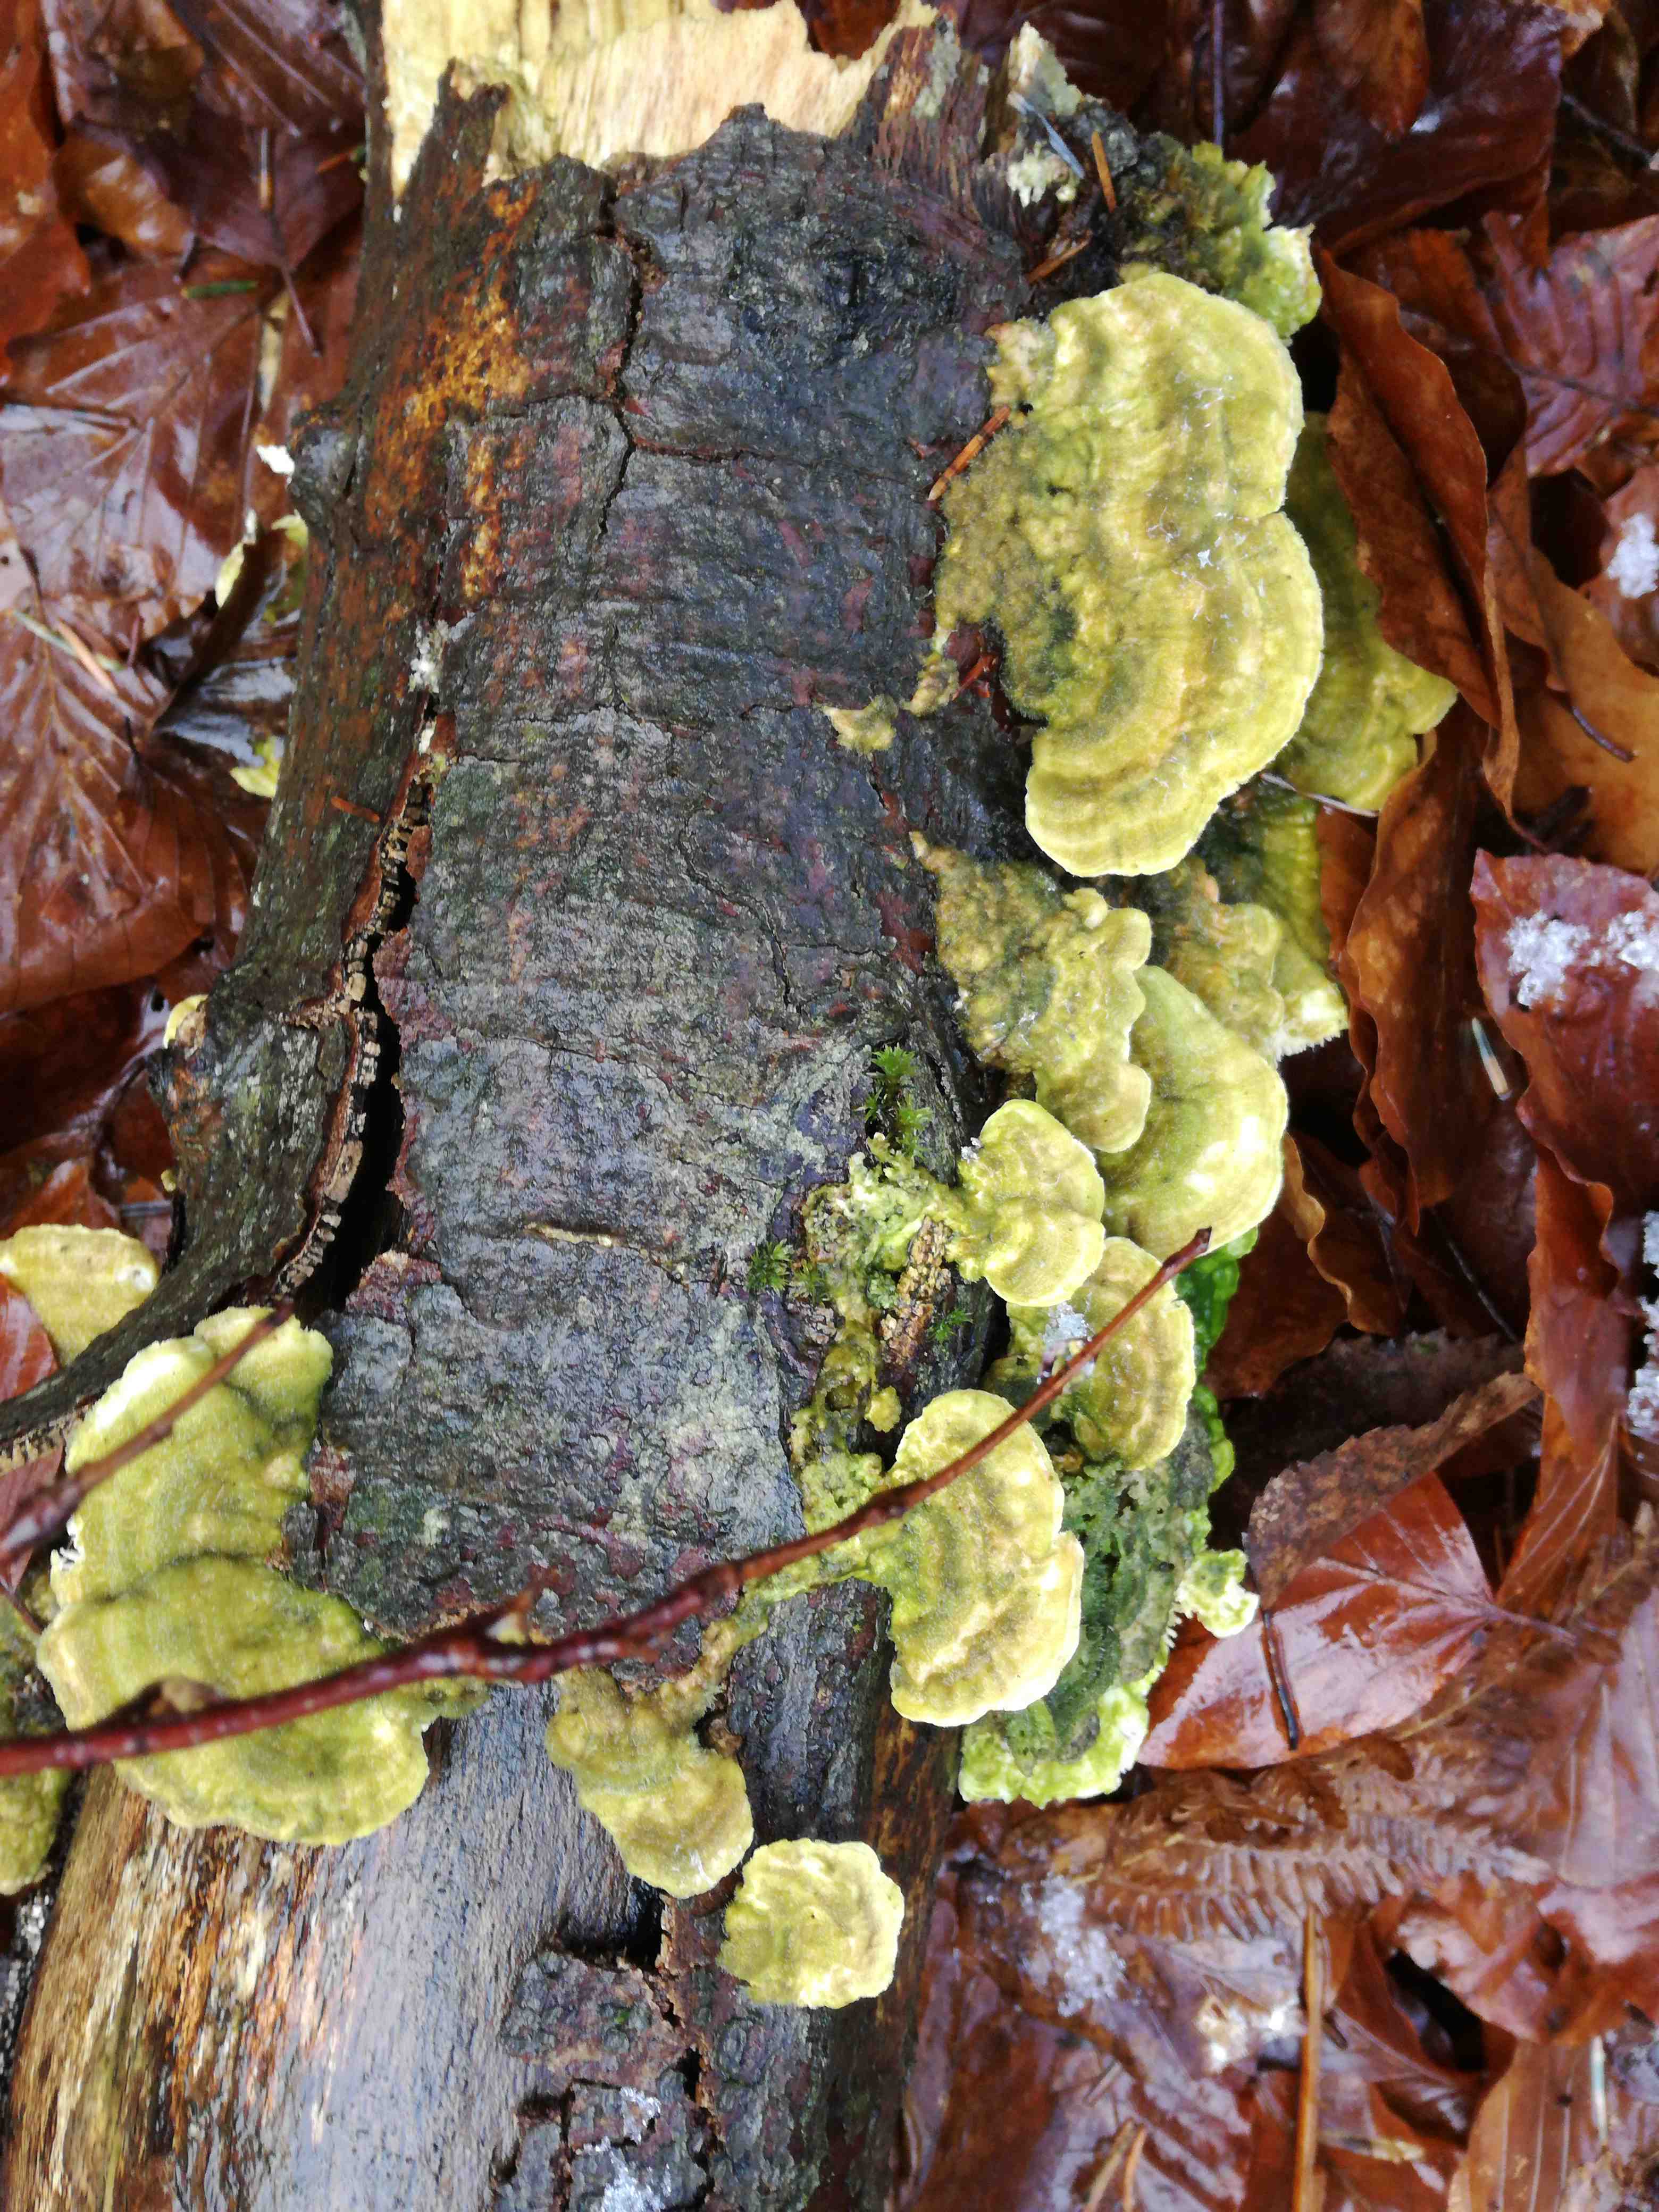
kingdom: Fungi
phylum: Basidiomycota
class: Agaricomycetes
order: Polyporales
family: Polyporaceae
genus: Lenzites
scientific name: Lenzites betulinus
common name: birke-læderporesvamp
